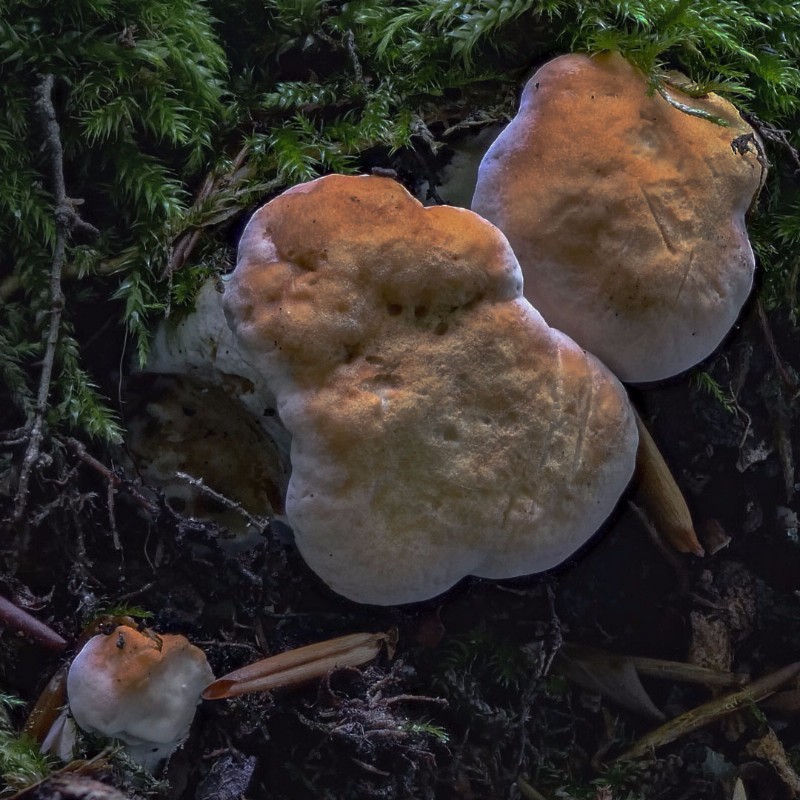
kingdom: Fungi
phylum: Basidiomycota
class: Agaricomycetes
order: Cantharellales
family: Hydnaceae
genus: Hydnum
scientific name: Hydnum repandum
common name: almindelig pigsvamp
